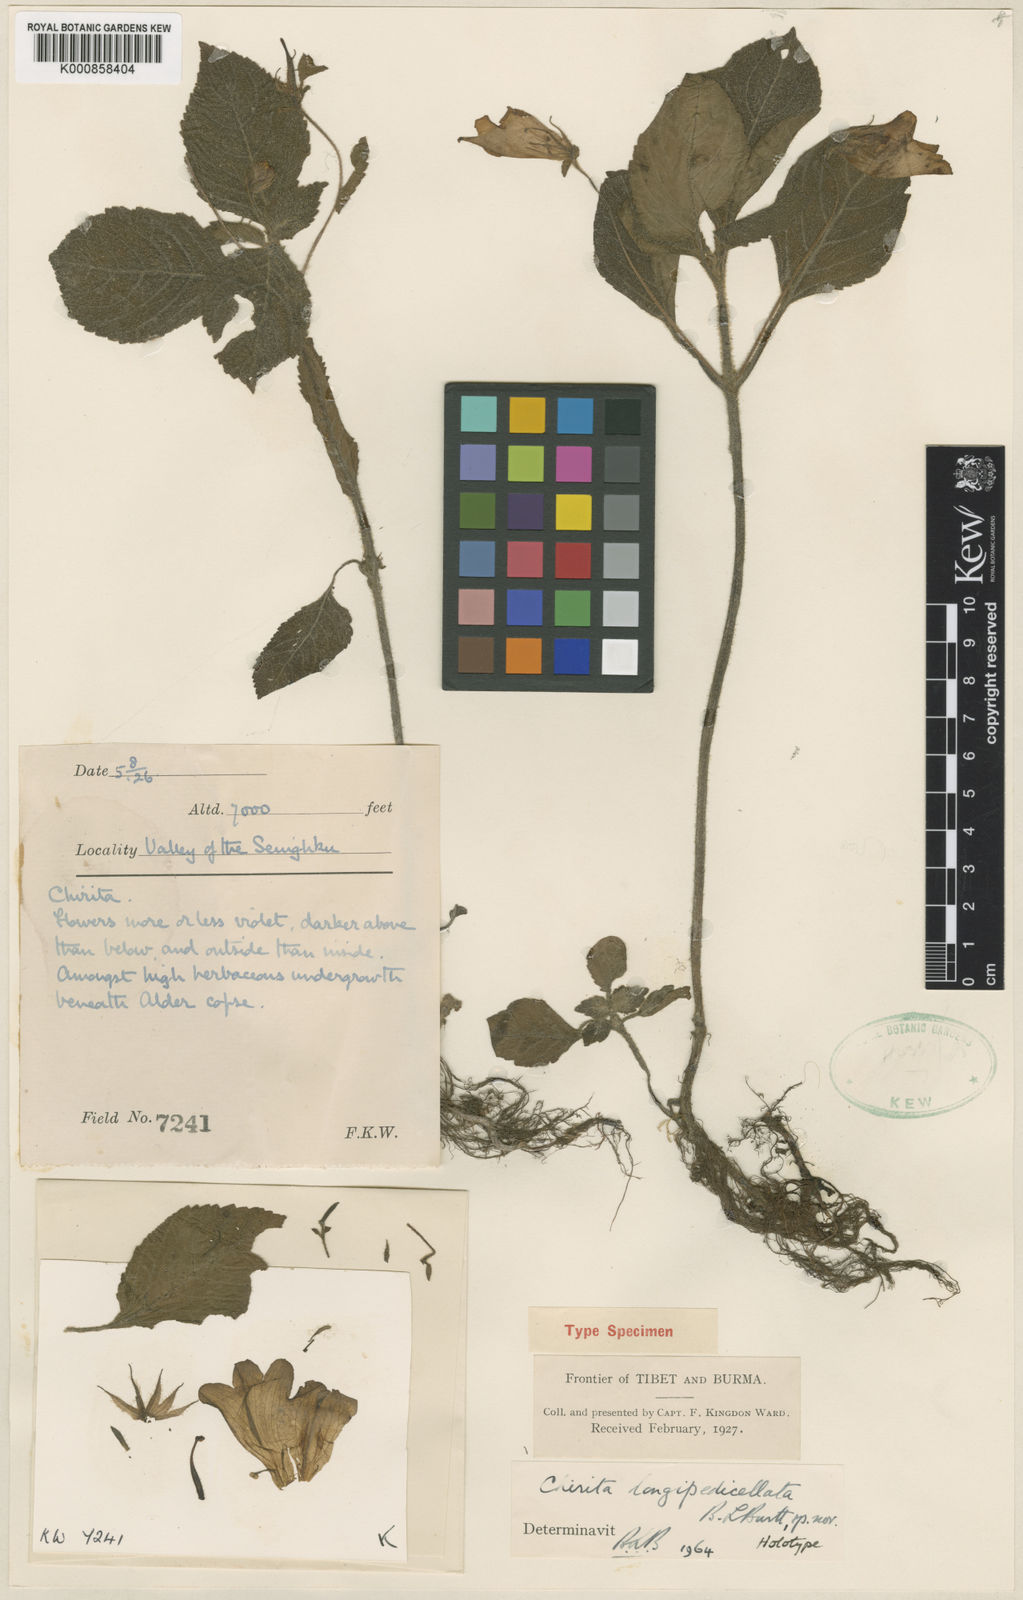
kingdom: Plantae
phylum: Tracheophyta
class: Magnoliopsida
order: Lamiales
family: Gesneriaceae
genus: Henckelia
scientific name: Henckelia longipedicellata
